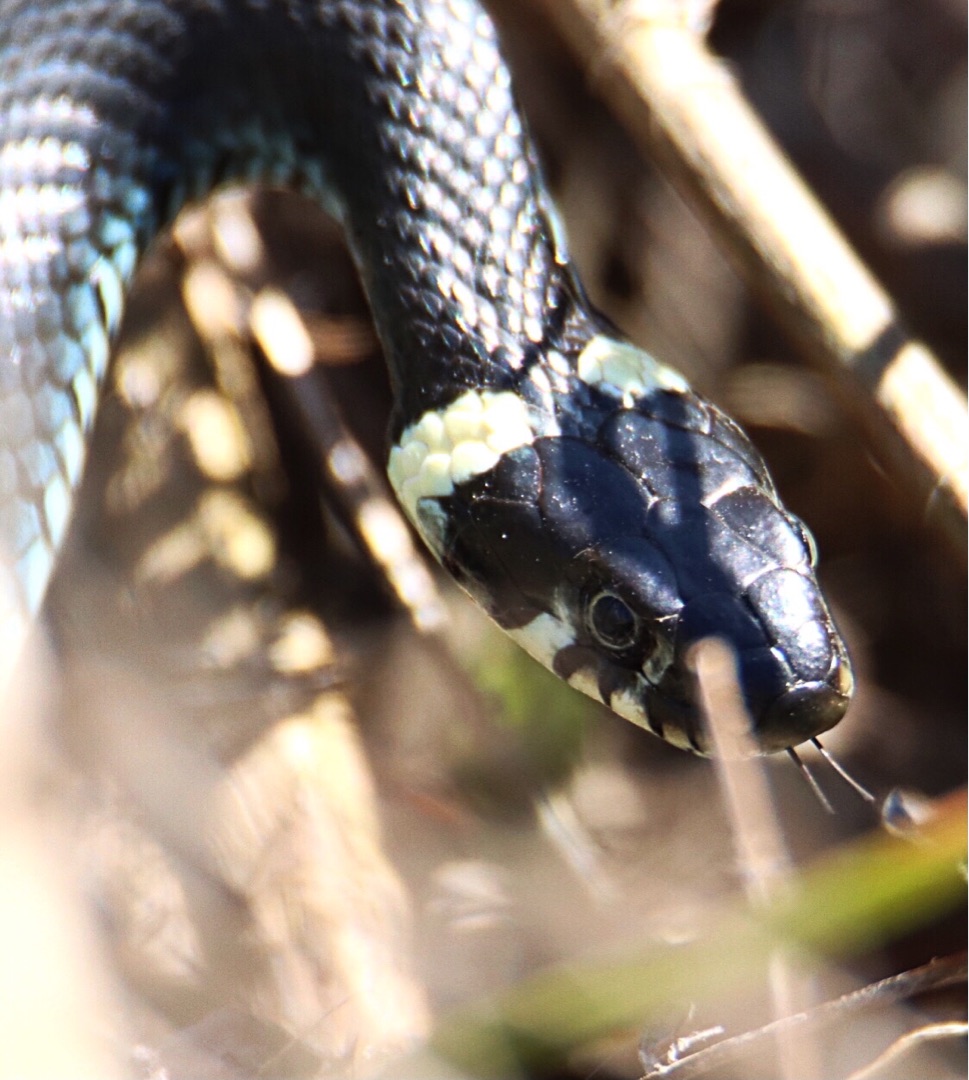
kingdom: Animalia
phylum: Chordata
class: Squamata
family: Colubridae
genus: Natrix
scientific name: Natrix natrix
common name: Snog
